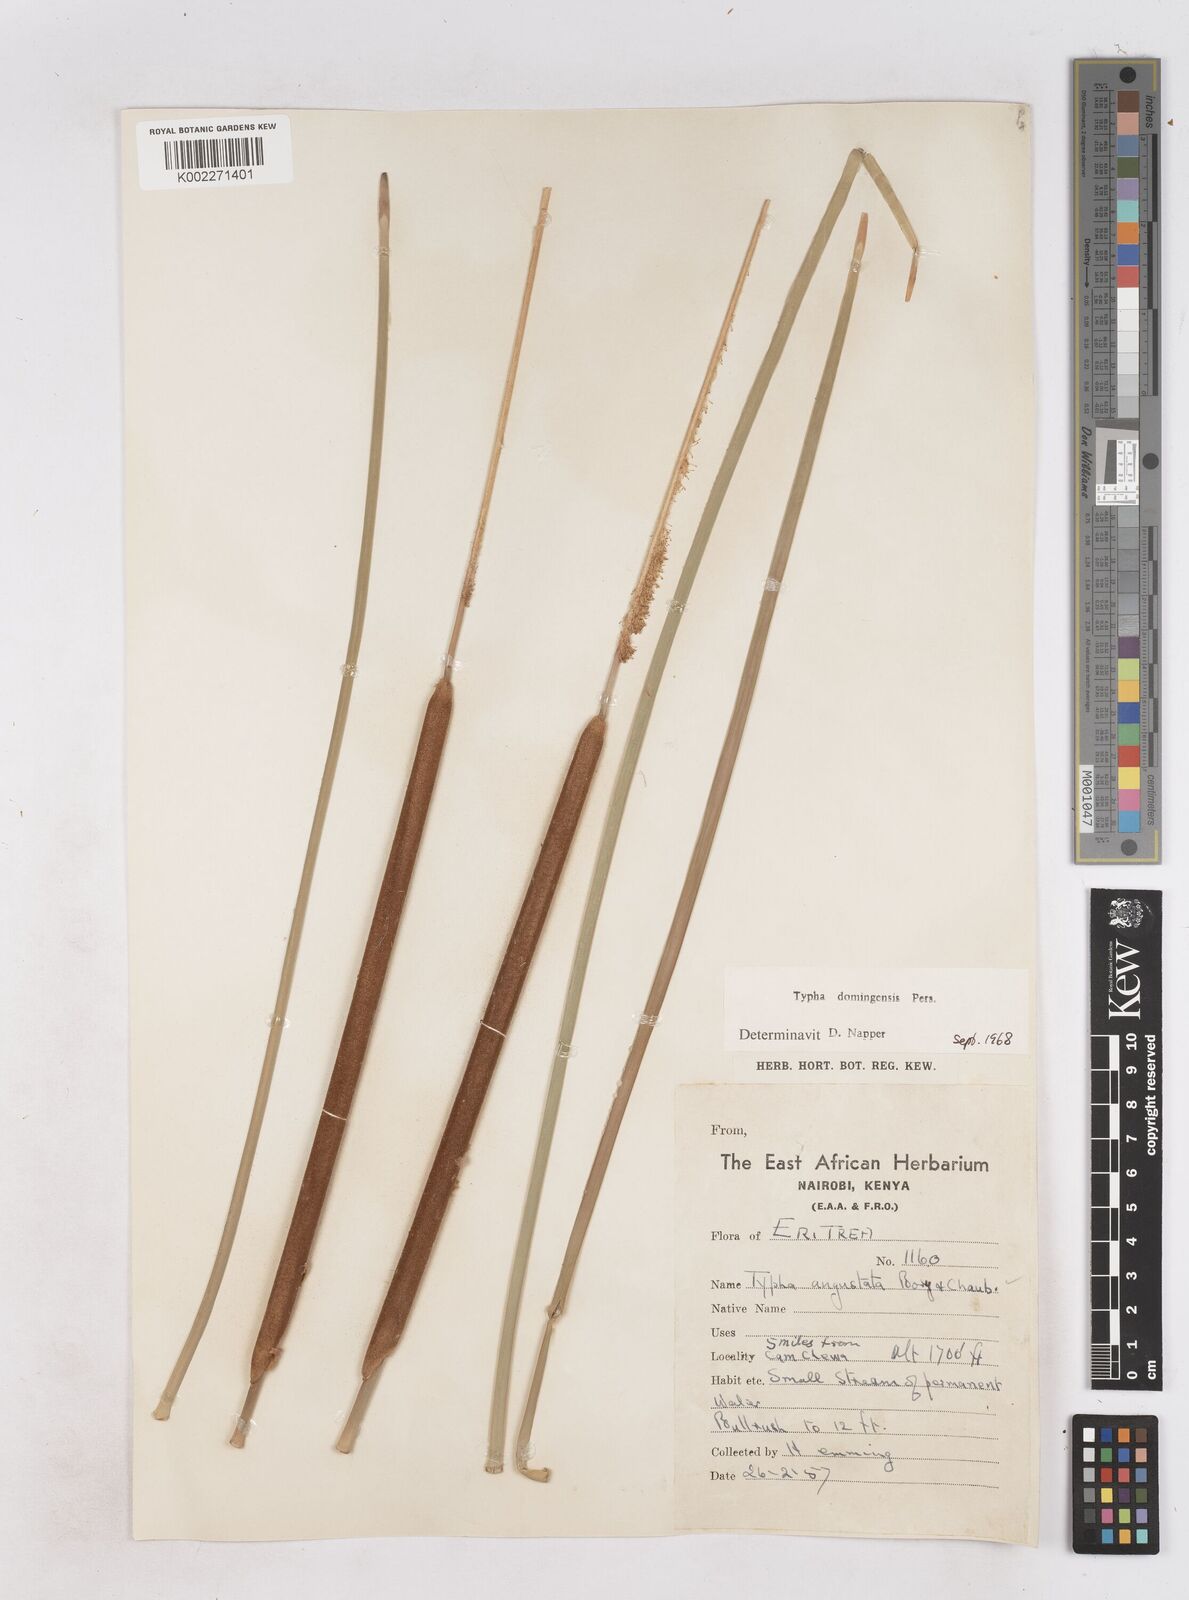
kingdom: Plantae
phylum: Tracheophyta
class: Liliopsida
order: Poales
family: Typhaceae
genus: Typha
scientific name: Typha domingensis
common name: Southern cattail
